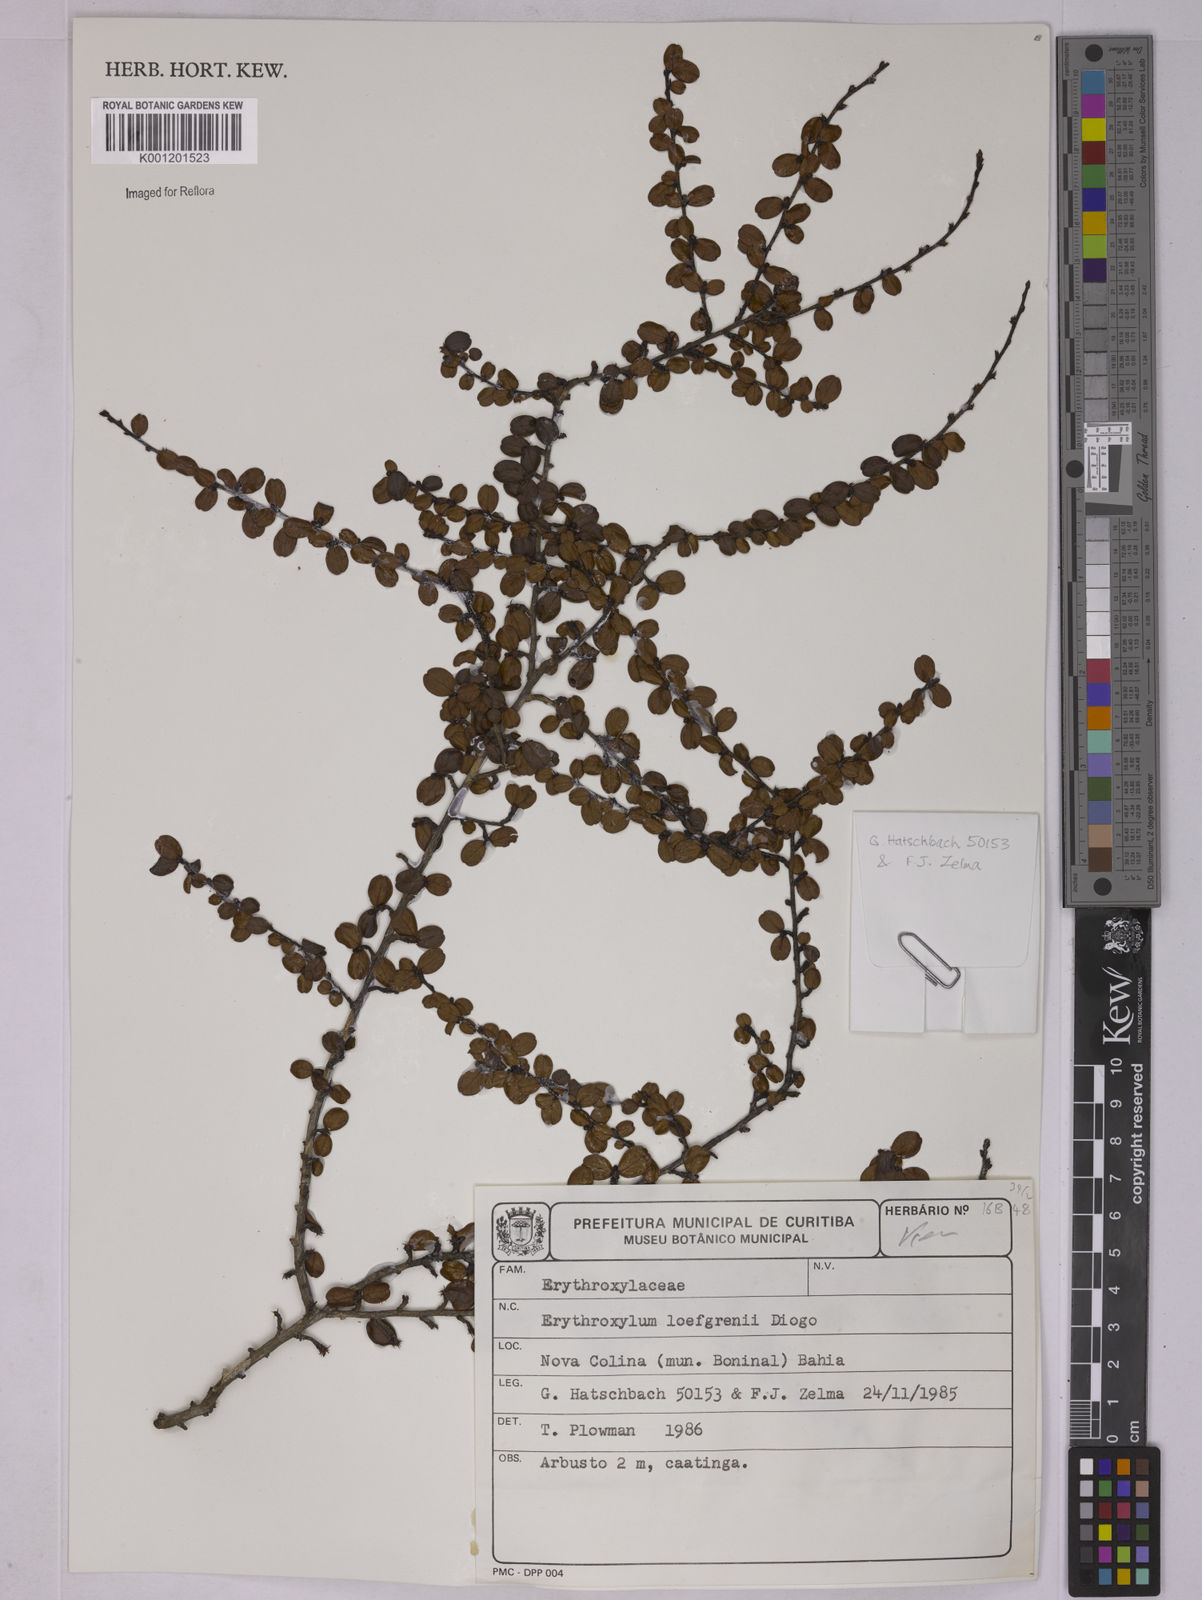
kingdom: Plantae
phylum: Tracheophyta
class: Magnoliopsida
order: Malpighiales
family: Erythroxylaceae
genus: Erythroxylum
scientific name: Erythroxylum loefgrenii
